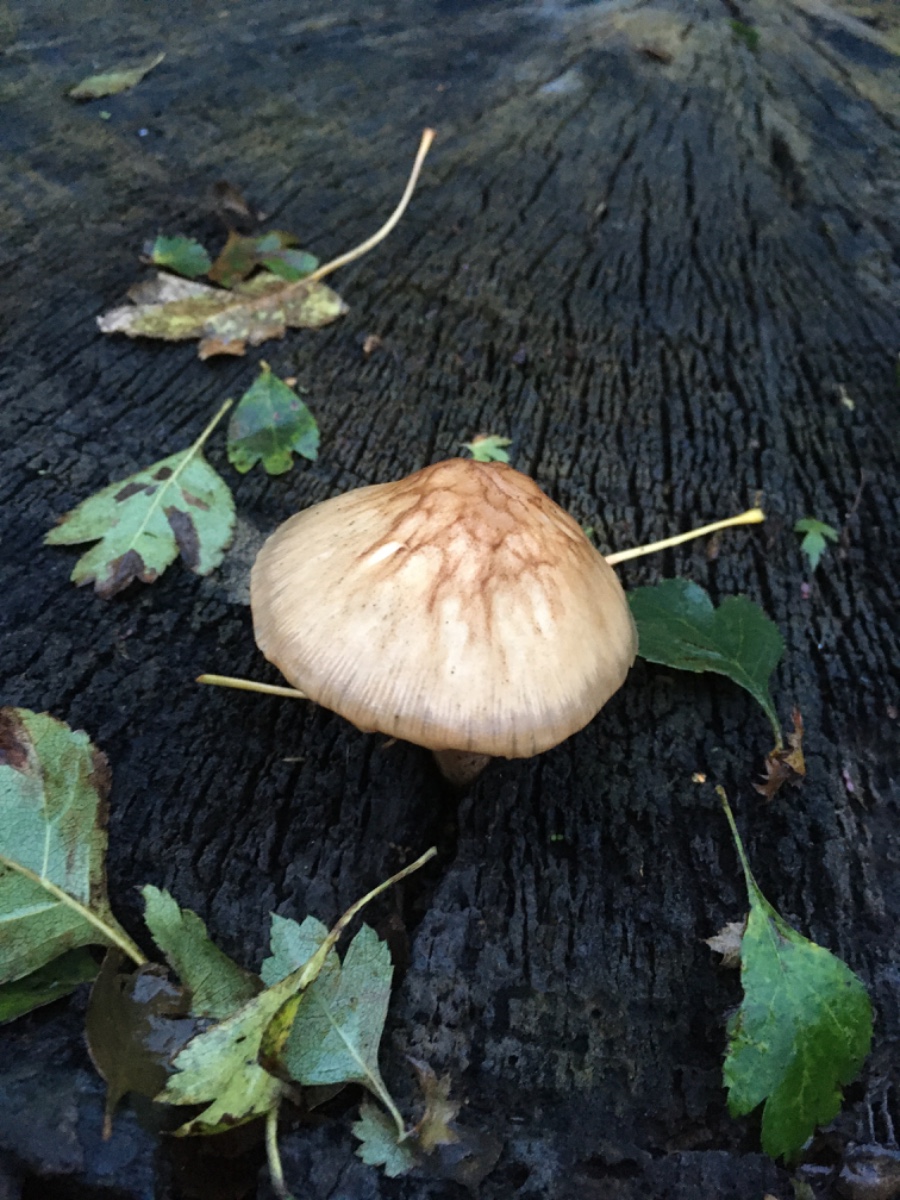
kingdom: Fungi
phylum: Basidiomycota
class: Agaricomycetes
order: Agaricales
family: Pluteaceae
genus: Pluteus
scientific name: Pluteus
